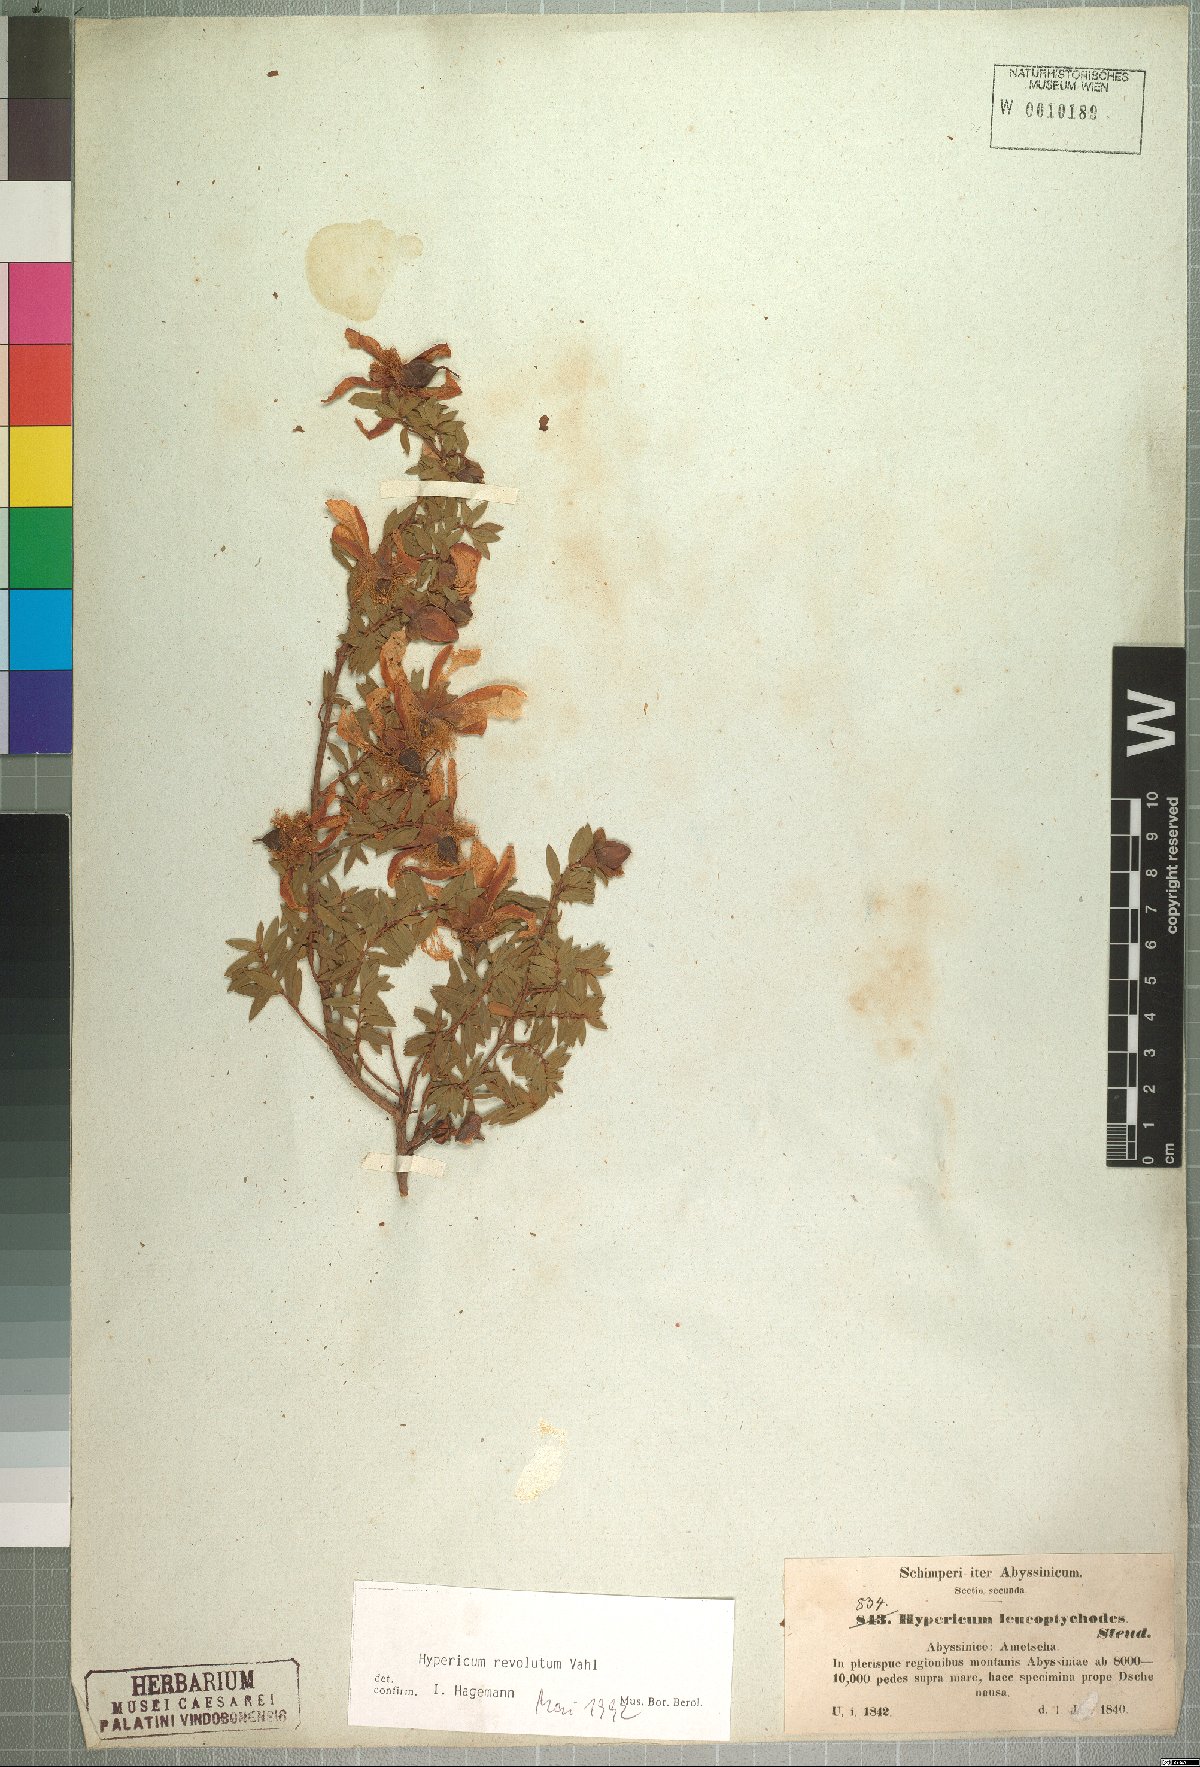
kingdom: Plantae
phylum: Tracheophyta
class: Magnoliopsida
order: Malpighiales
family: Hypericaceae
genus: Hypericum
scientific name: Hypericum revolutum
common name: Curry bush
